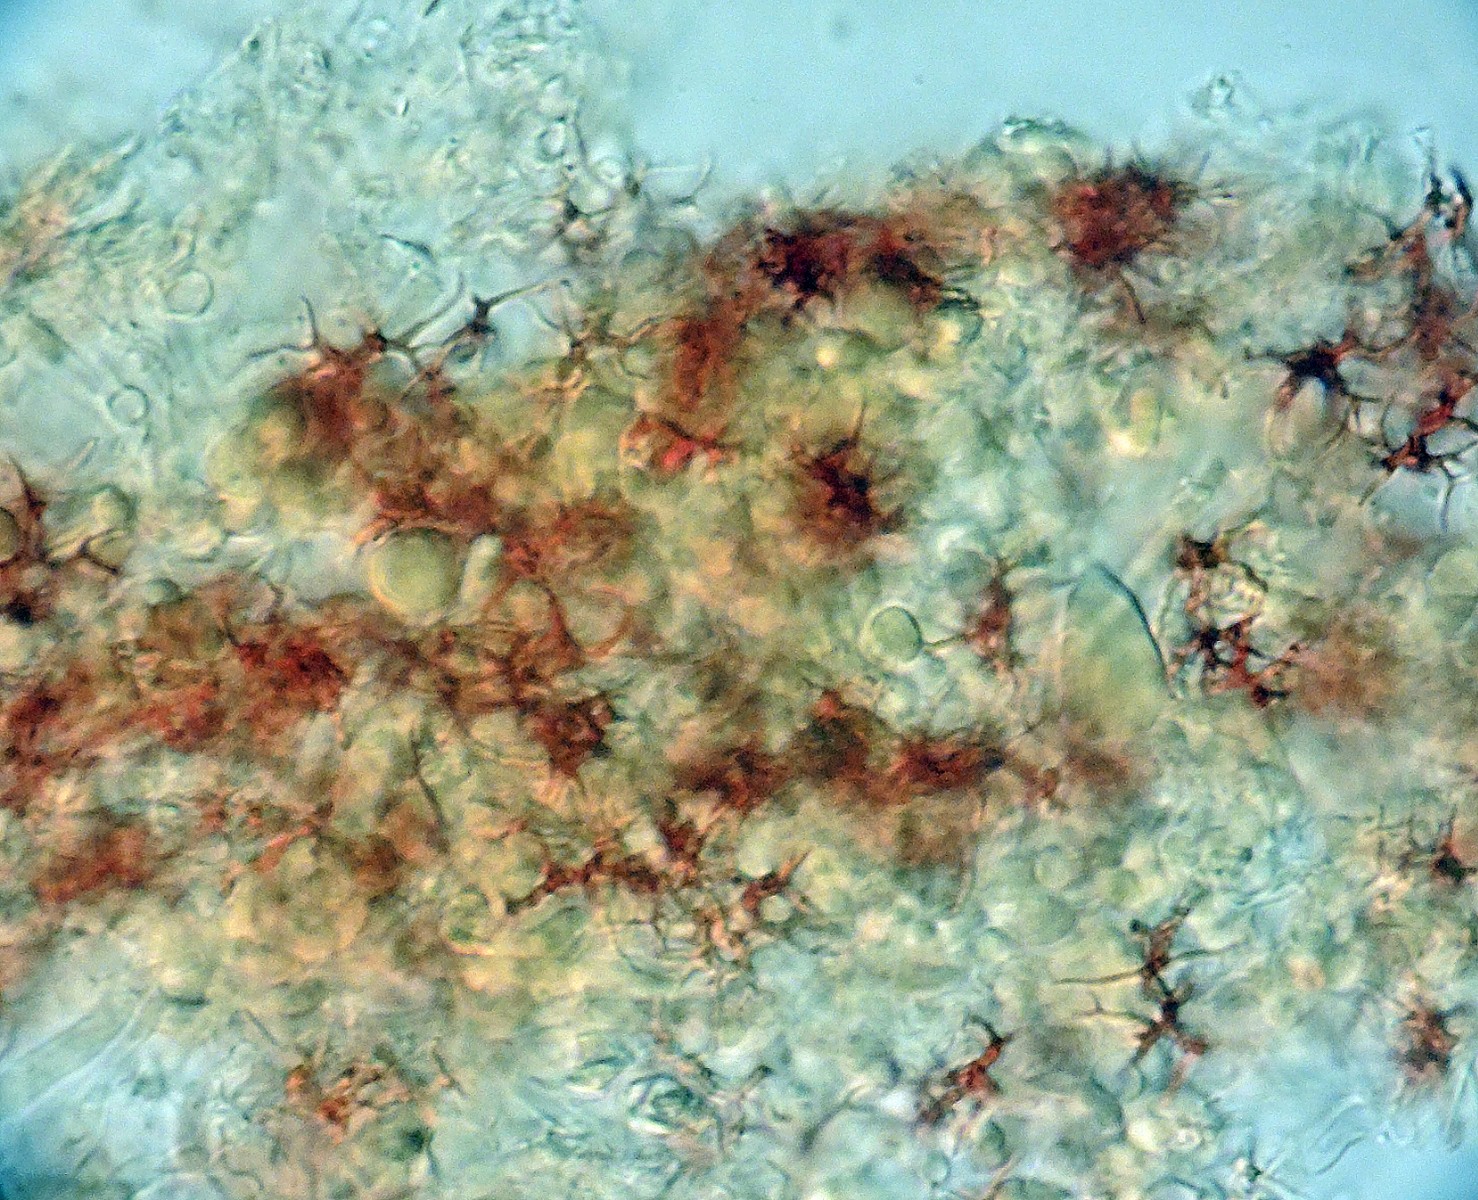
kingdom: Fungi
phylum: Basidiomycota
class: Agaricomycetes
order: Russulales
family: Peniophoraceae
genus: Vararia
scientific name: Vararia
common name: stjerneskind
